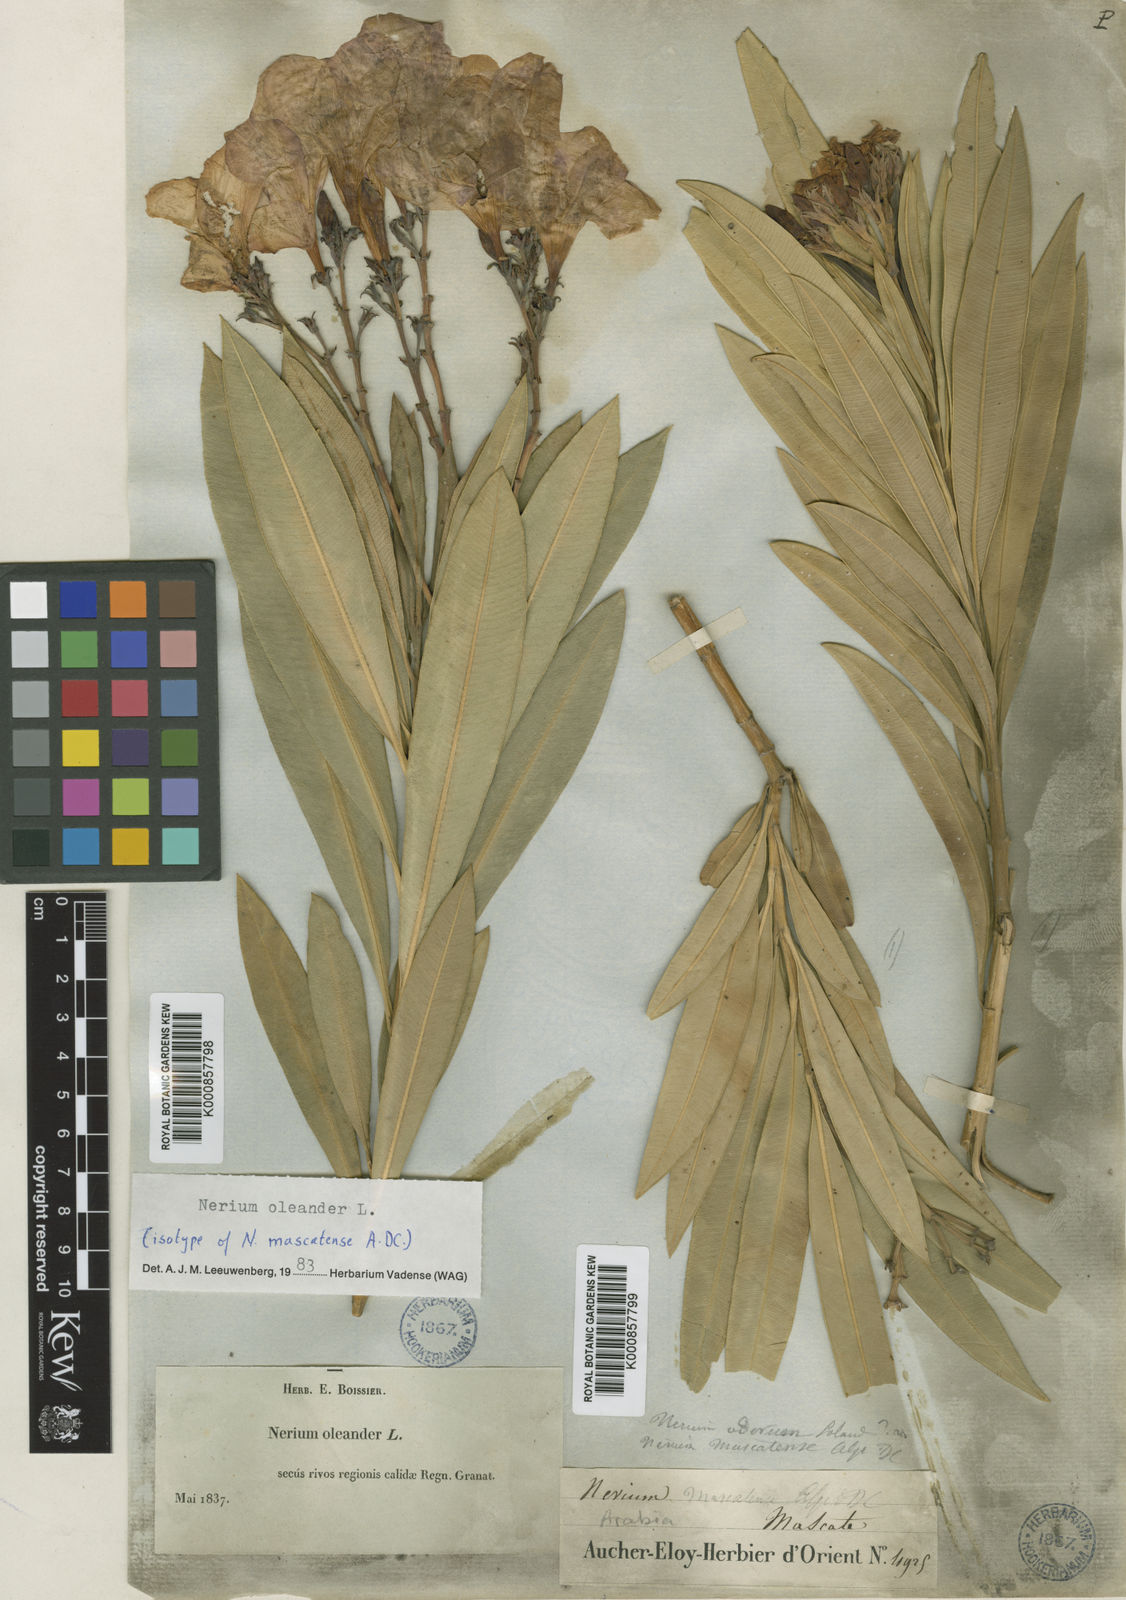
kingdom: Plantae
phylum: Tracheophyta
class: Magnoliopsida
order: Gentianales
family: Apocynaceae
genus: Nerium
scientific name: Nerium oleander
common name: Oleander
